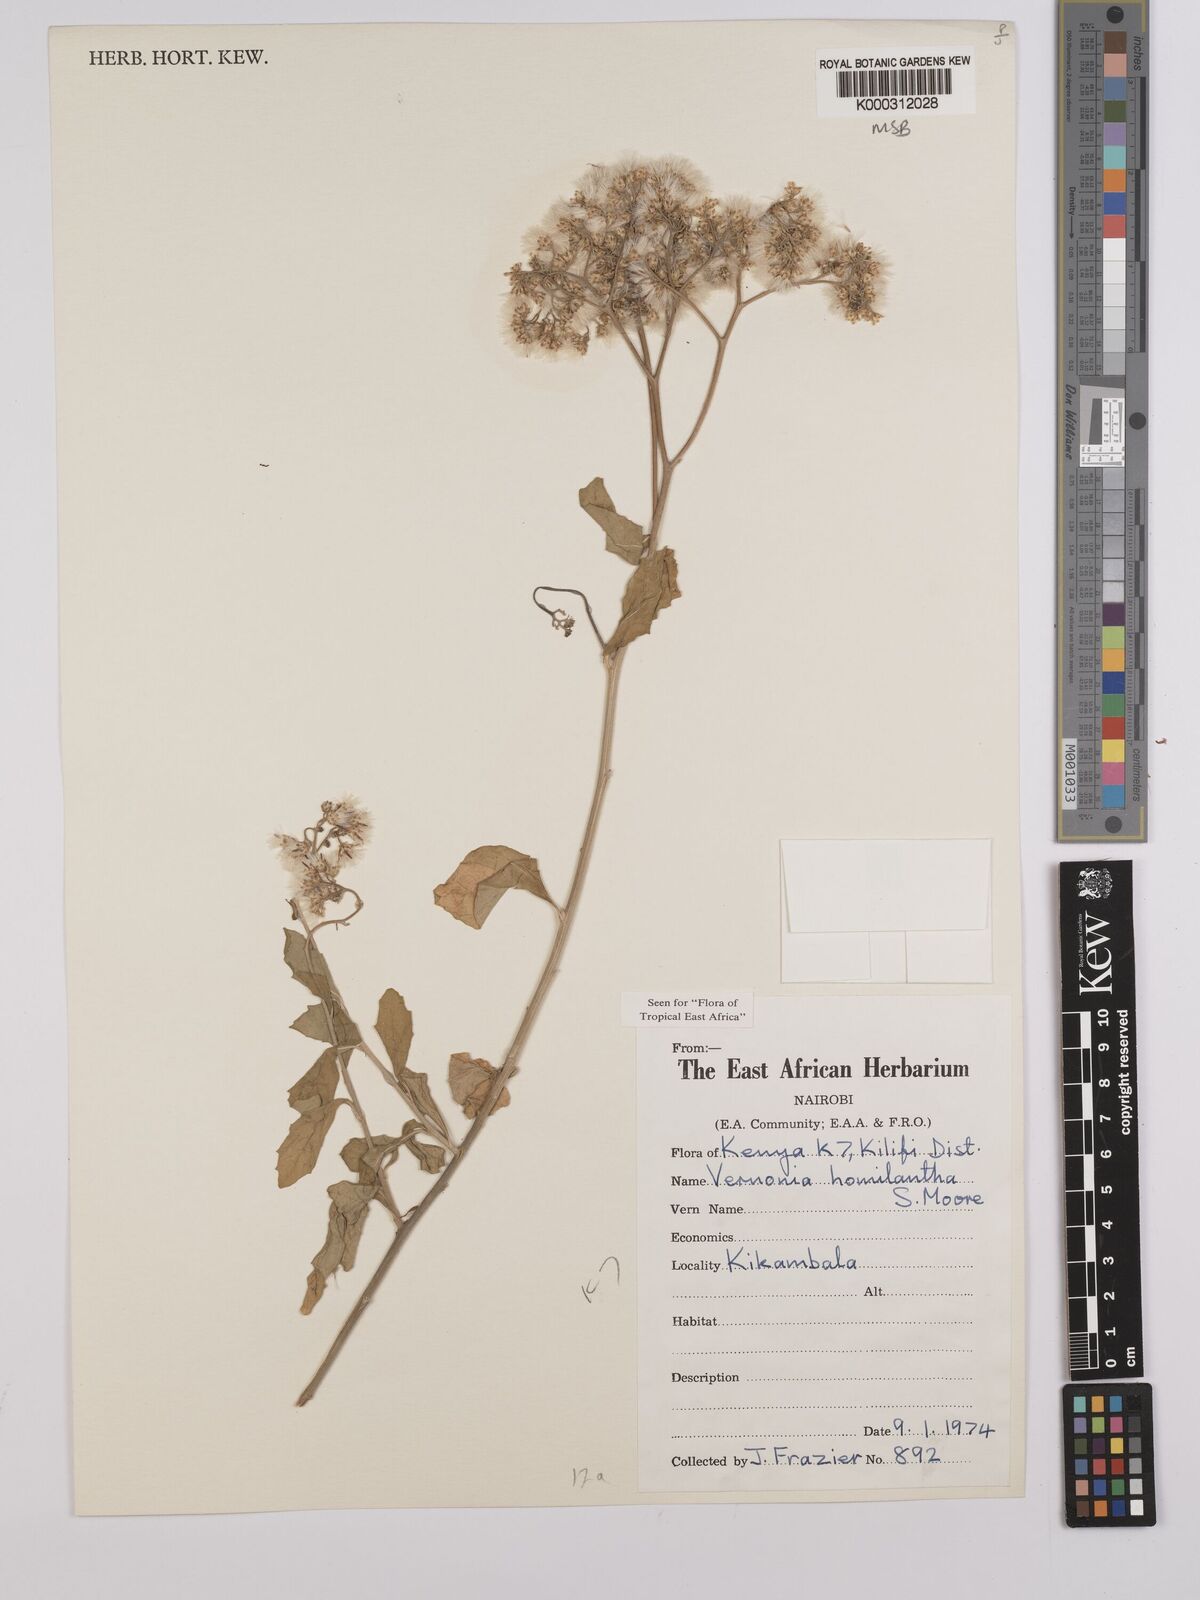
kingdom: Plantae
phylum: Tracheophyta
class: Magnoliopsida
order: Asterales
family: Asteraceae
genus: Orbivestus
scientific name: Orbivestus homilanthus
